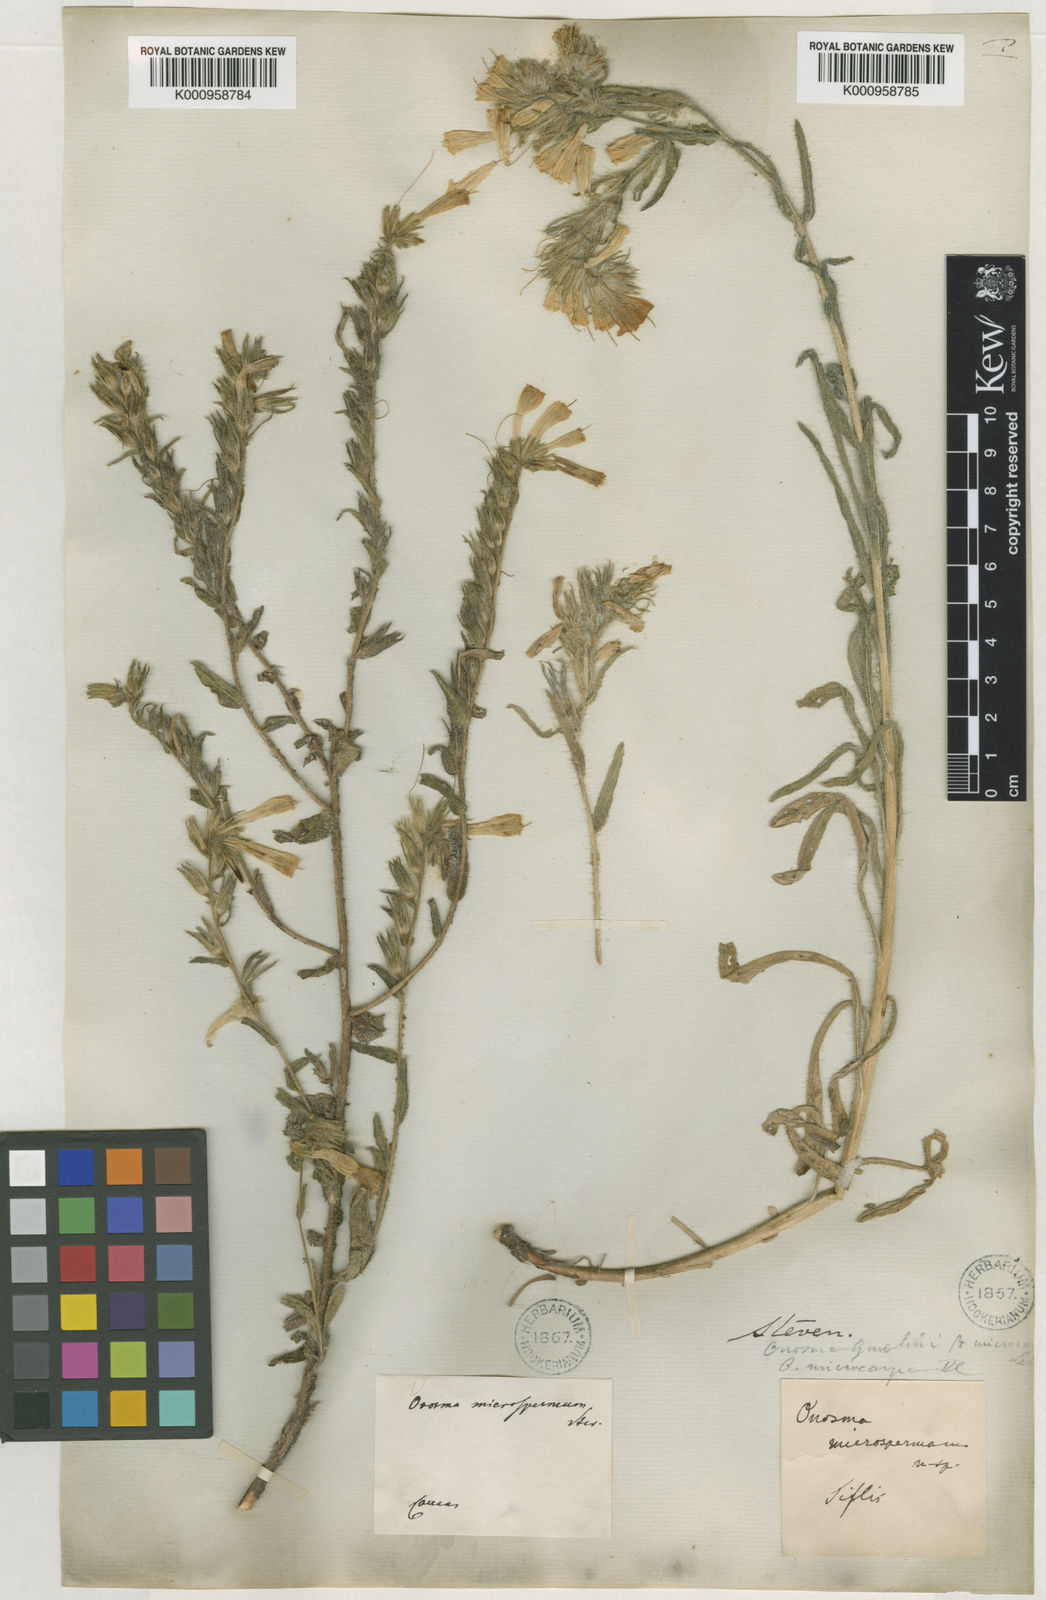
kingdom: Plantae
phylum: Tracheophyta
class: Magnoliopsida
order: Boraginales
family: Boraginaceae
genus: Onosma
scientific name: Onosma microcarpa
